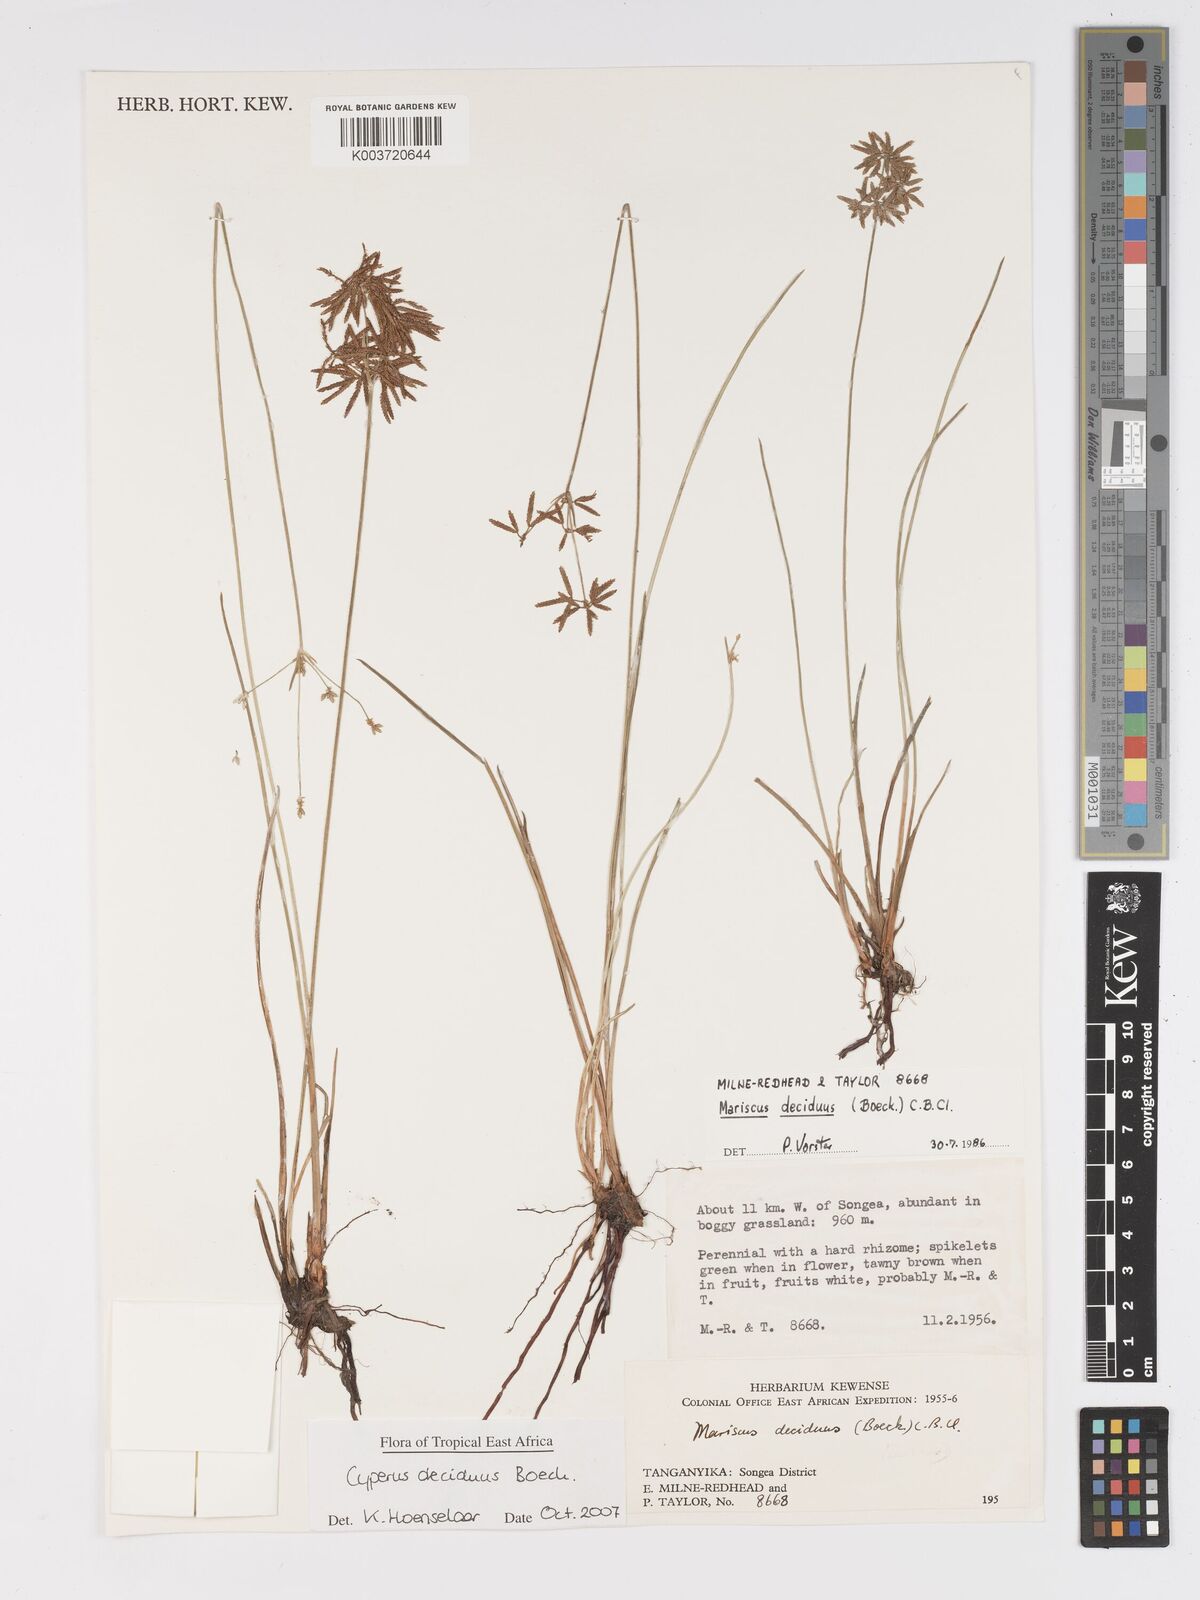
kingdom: Plantae
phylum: Tracheophyta
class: Liliopsida
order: Poales
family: Cyperaceae
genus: Cyperus
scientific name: Cyperus deciduus
